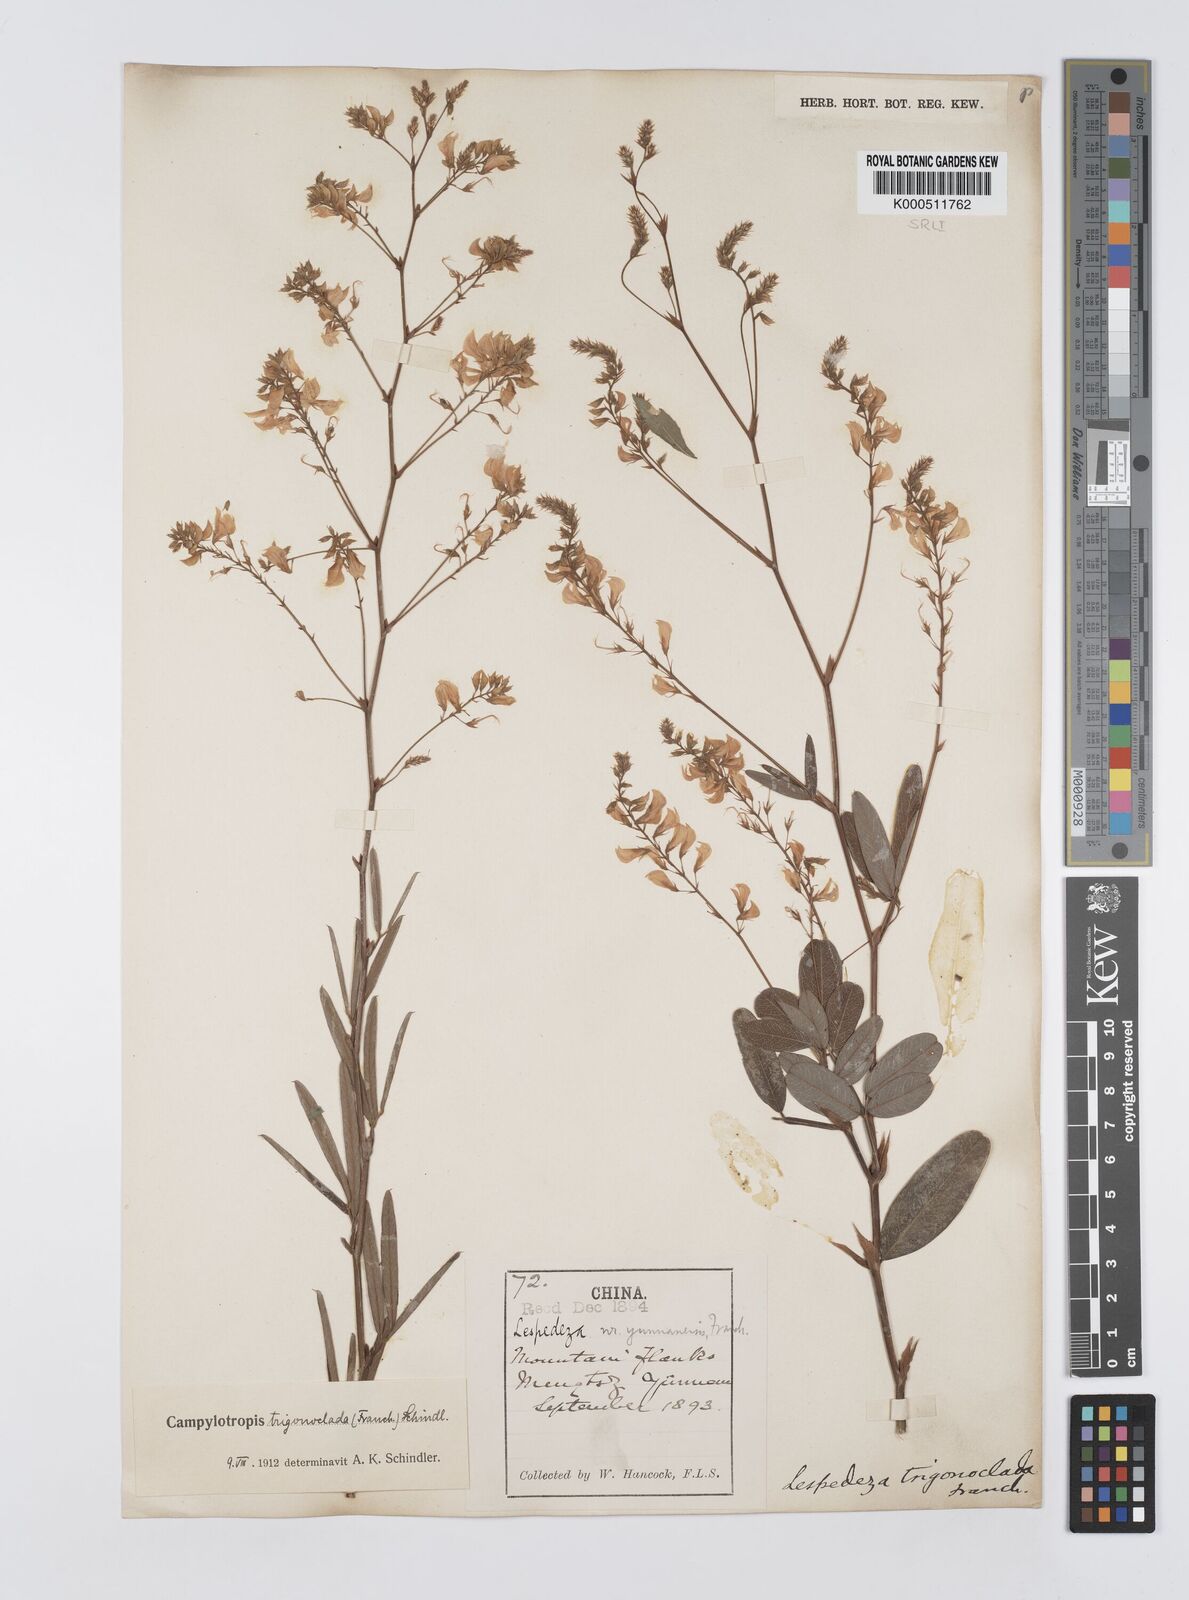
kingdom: Plantae
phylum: Tracheophyta
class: Magnoliopsida
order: Fabales
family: Fabaceae
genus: Campylotropis
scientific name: Campylotropis trigonoclada
